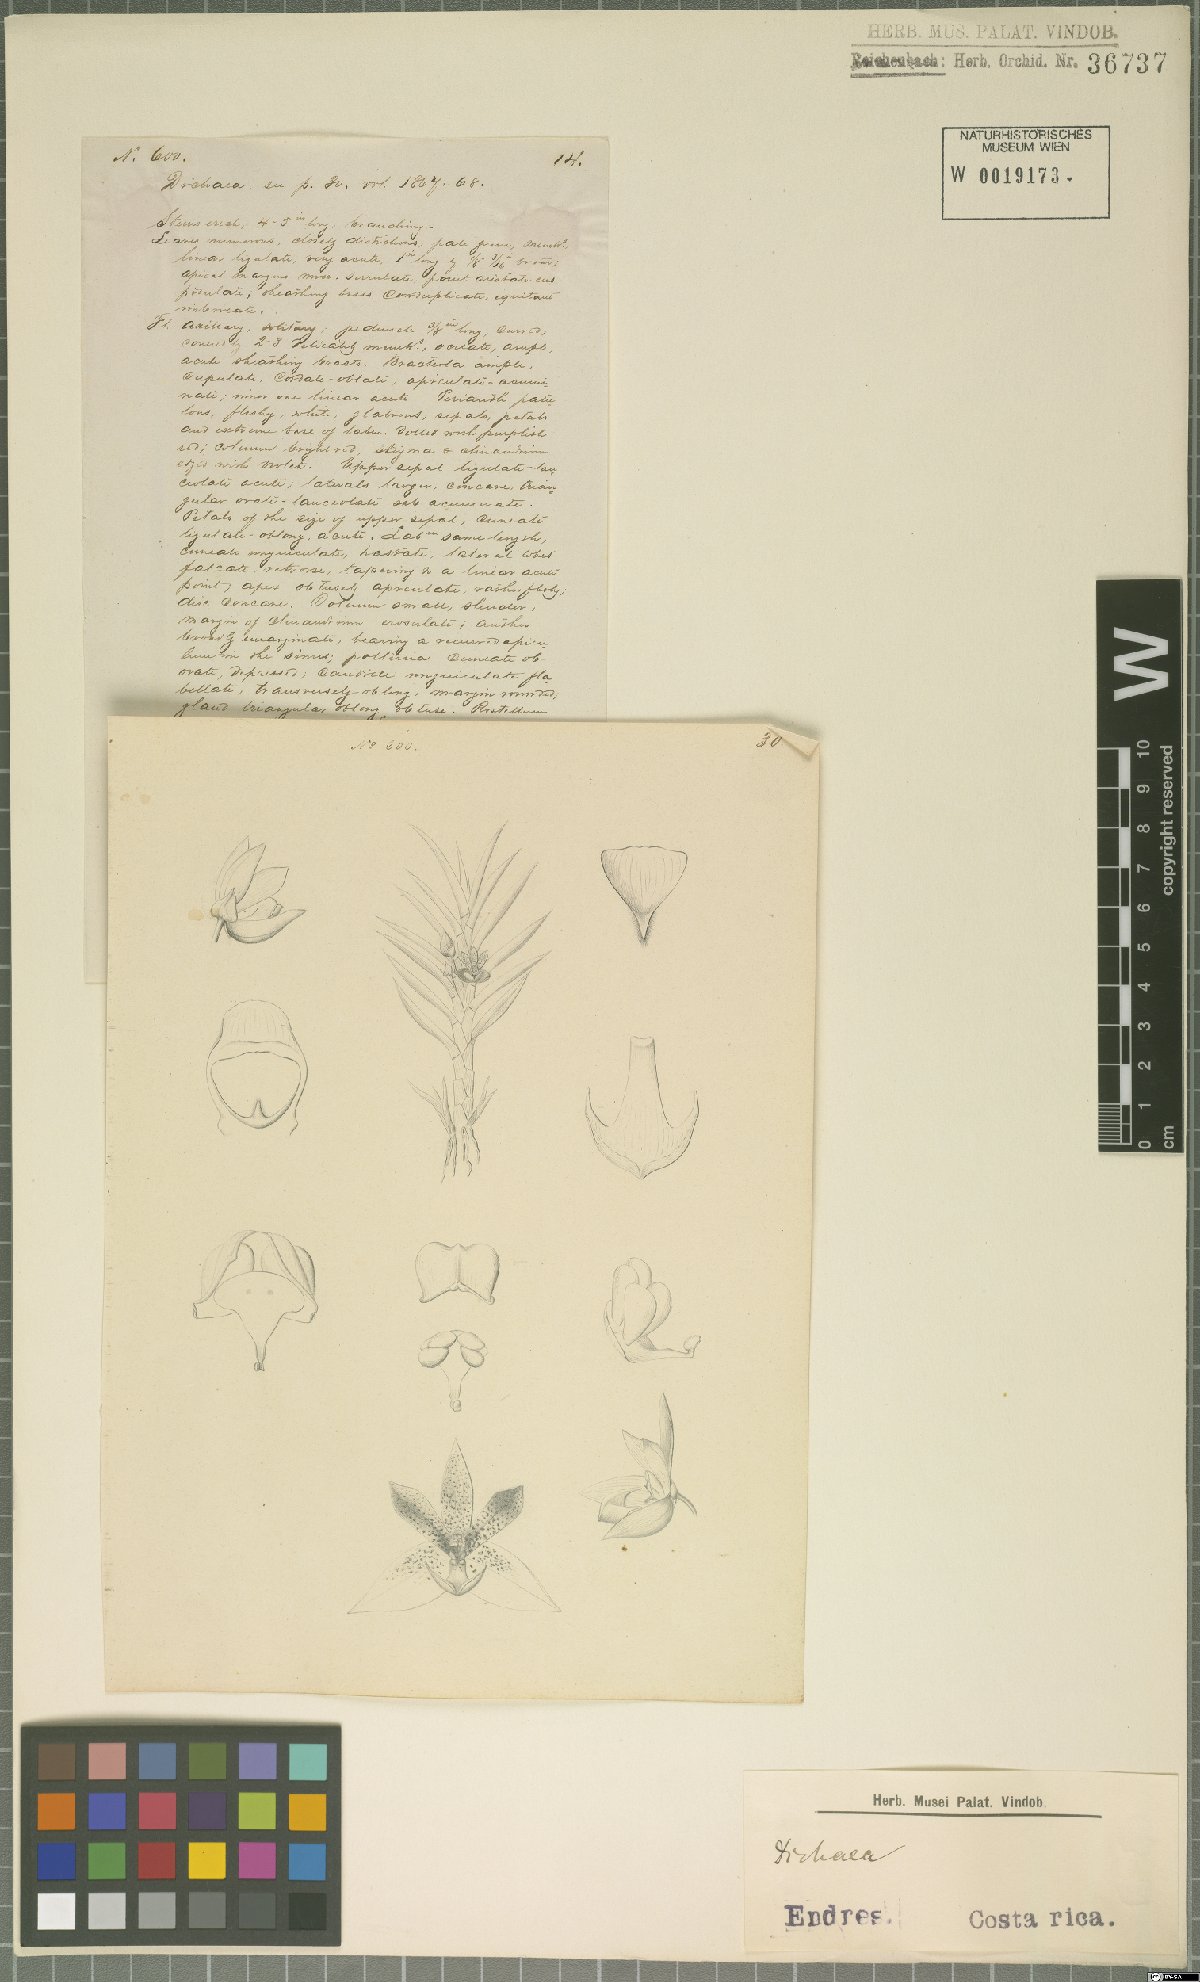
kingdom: Plantae
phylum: Tracheophyta
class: Liliopsida
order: Asparagales
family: Orchidaceae
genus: Dichaea
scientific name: Dichaea
